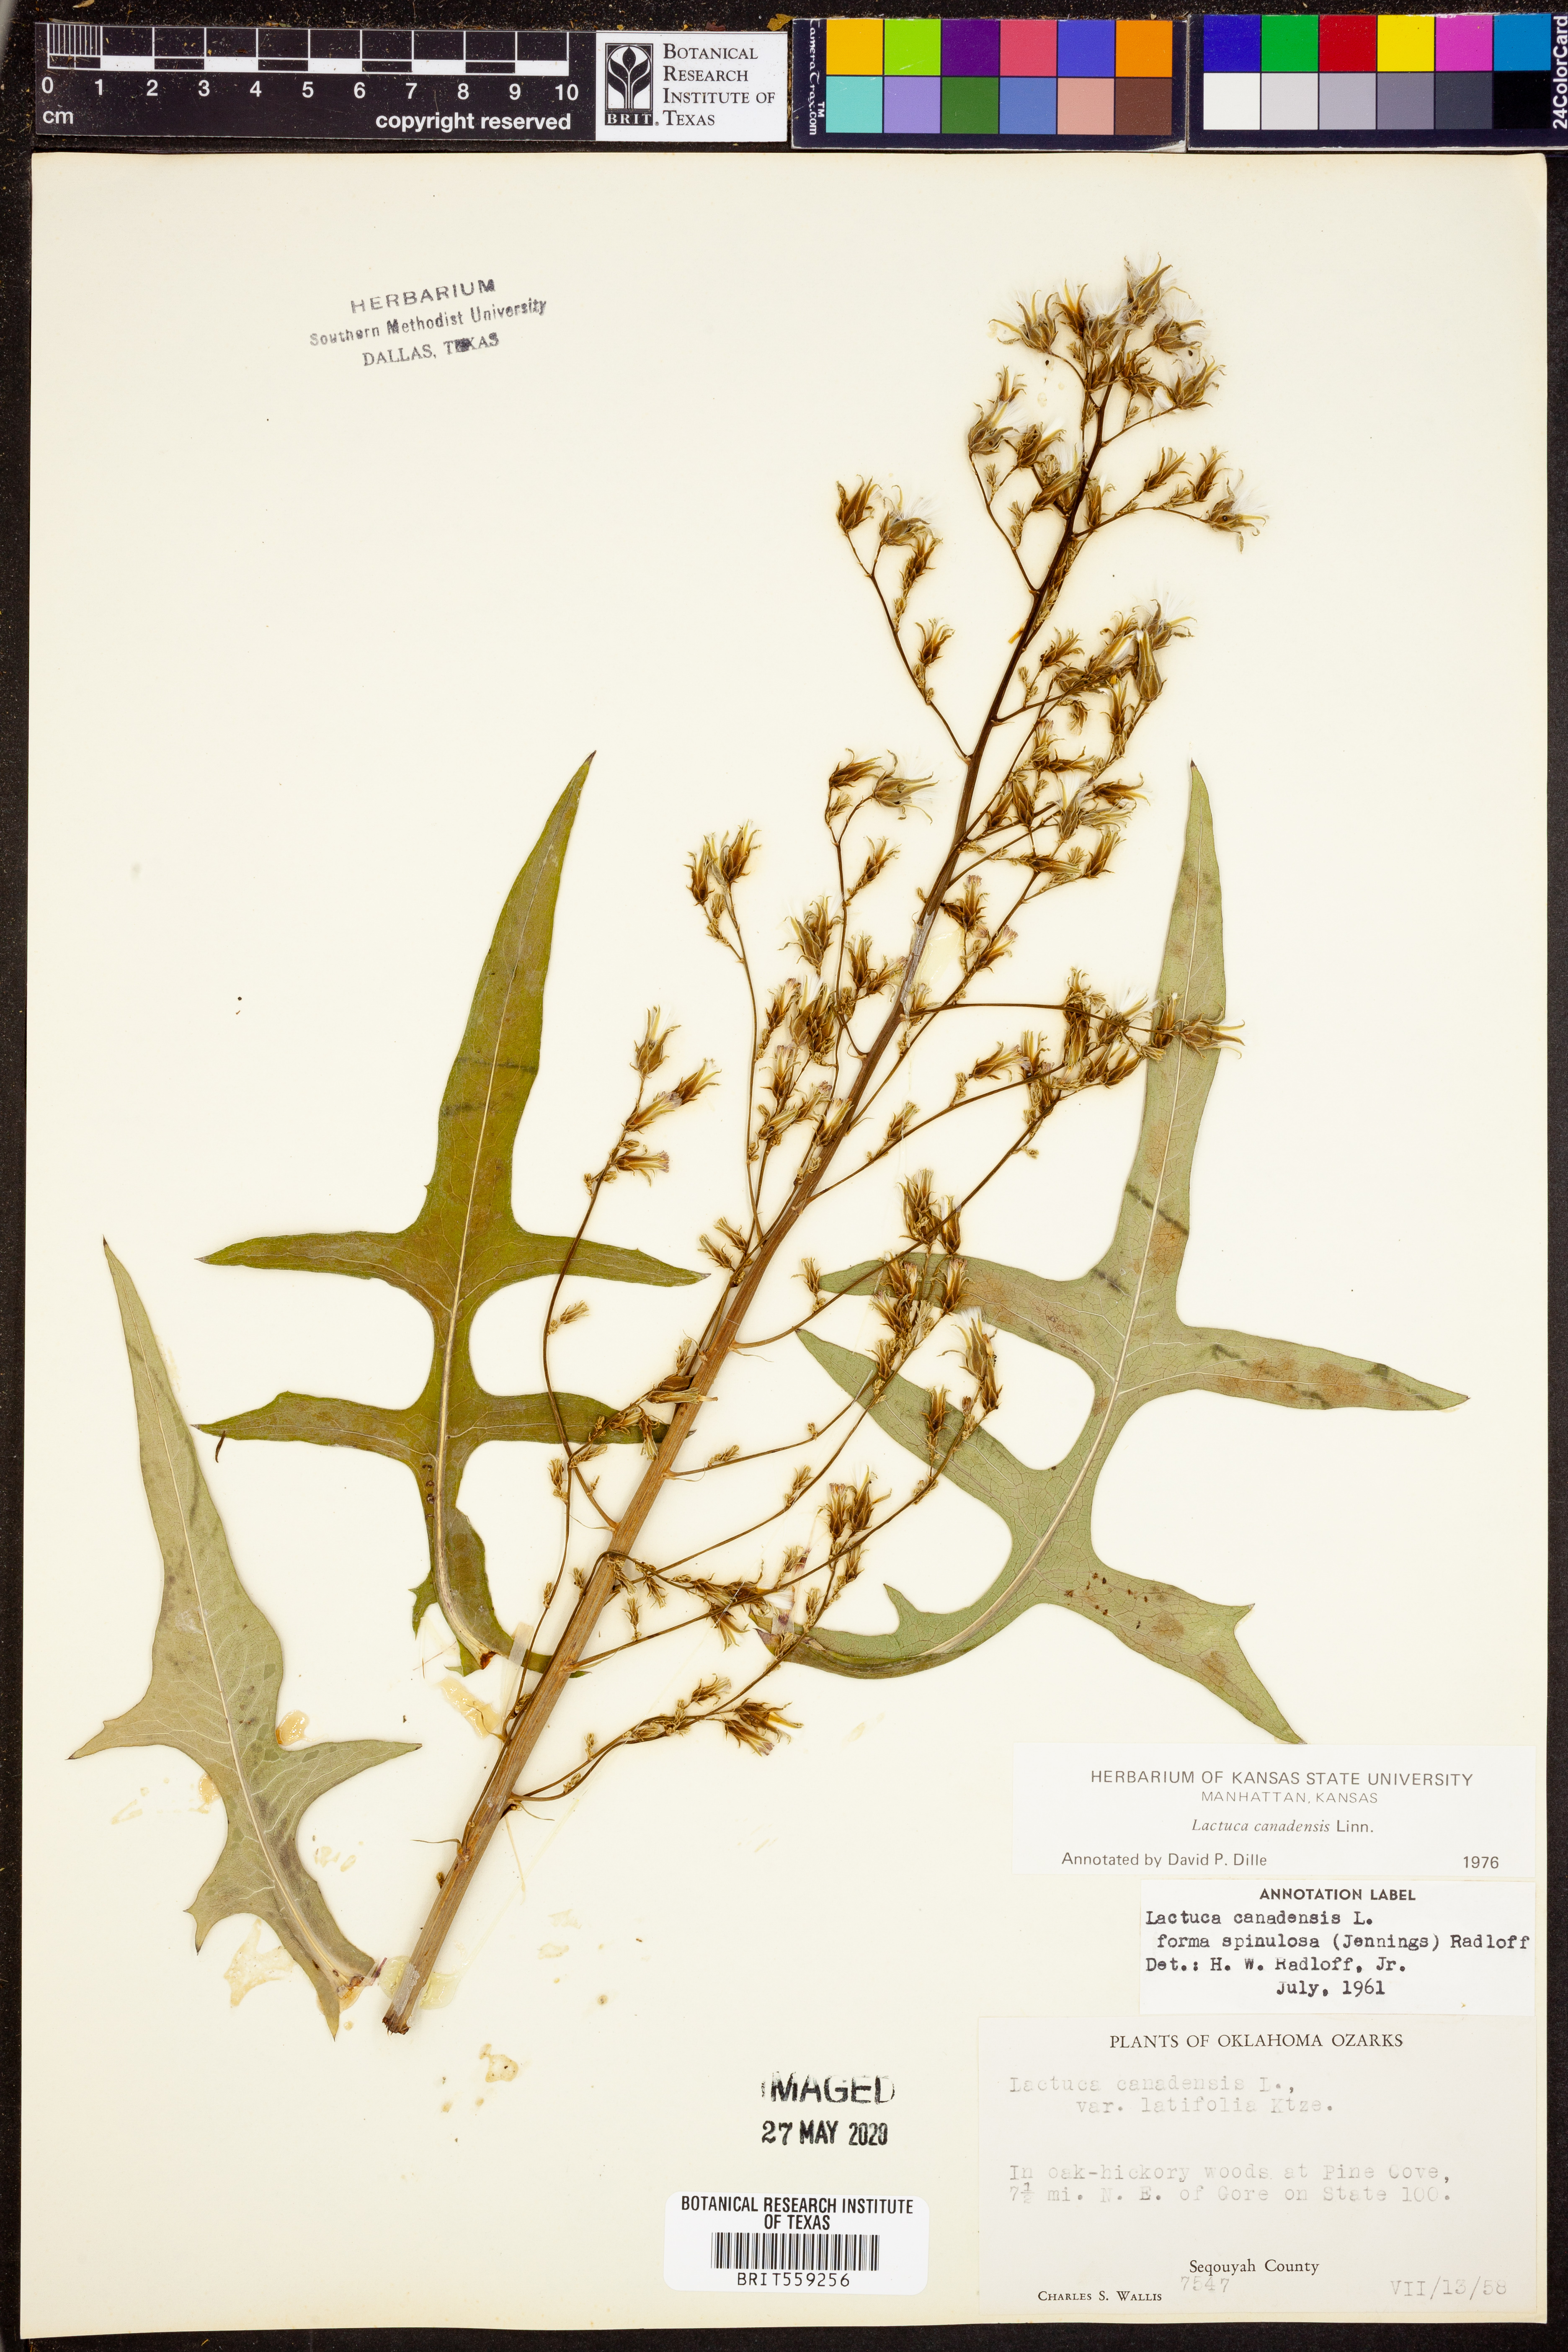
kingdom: Plantae
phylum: Tracheophyta
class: Magnoliopsida
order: Asterales
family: Asteraceae
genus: Lactuca
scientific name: Lactuca canadensis
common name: Canada lettuce
